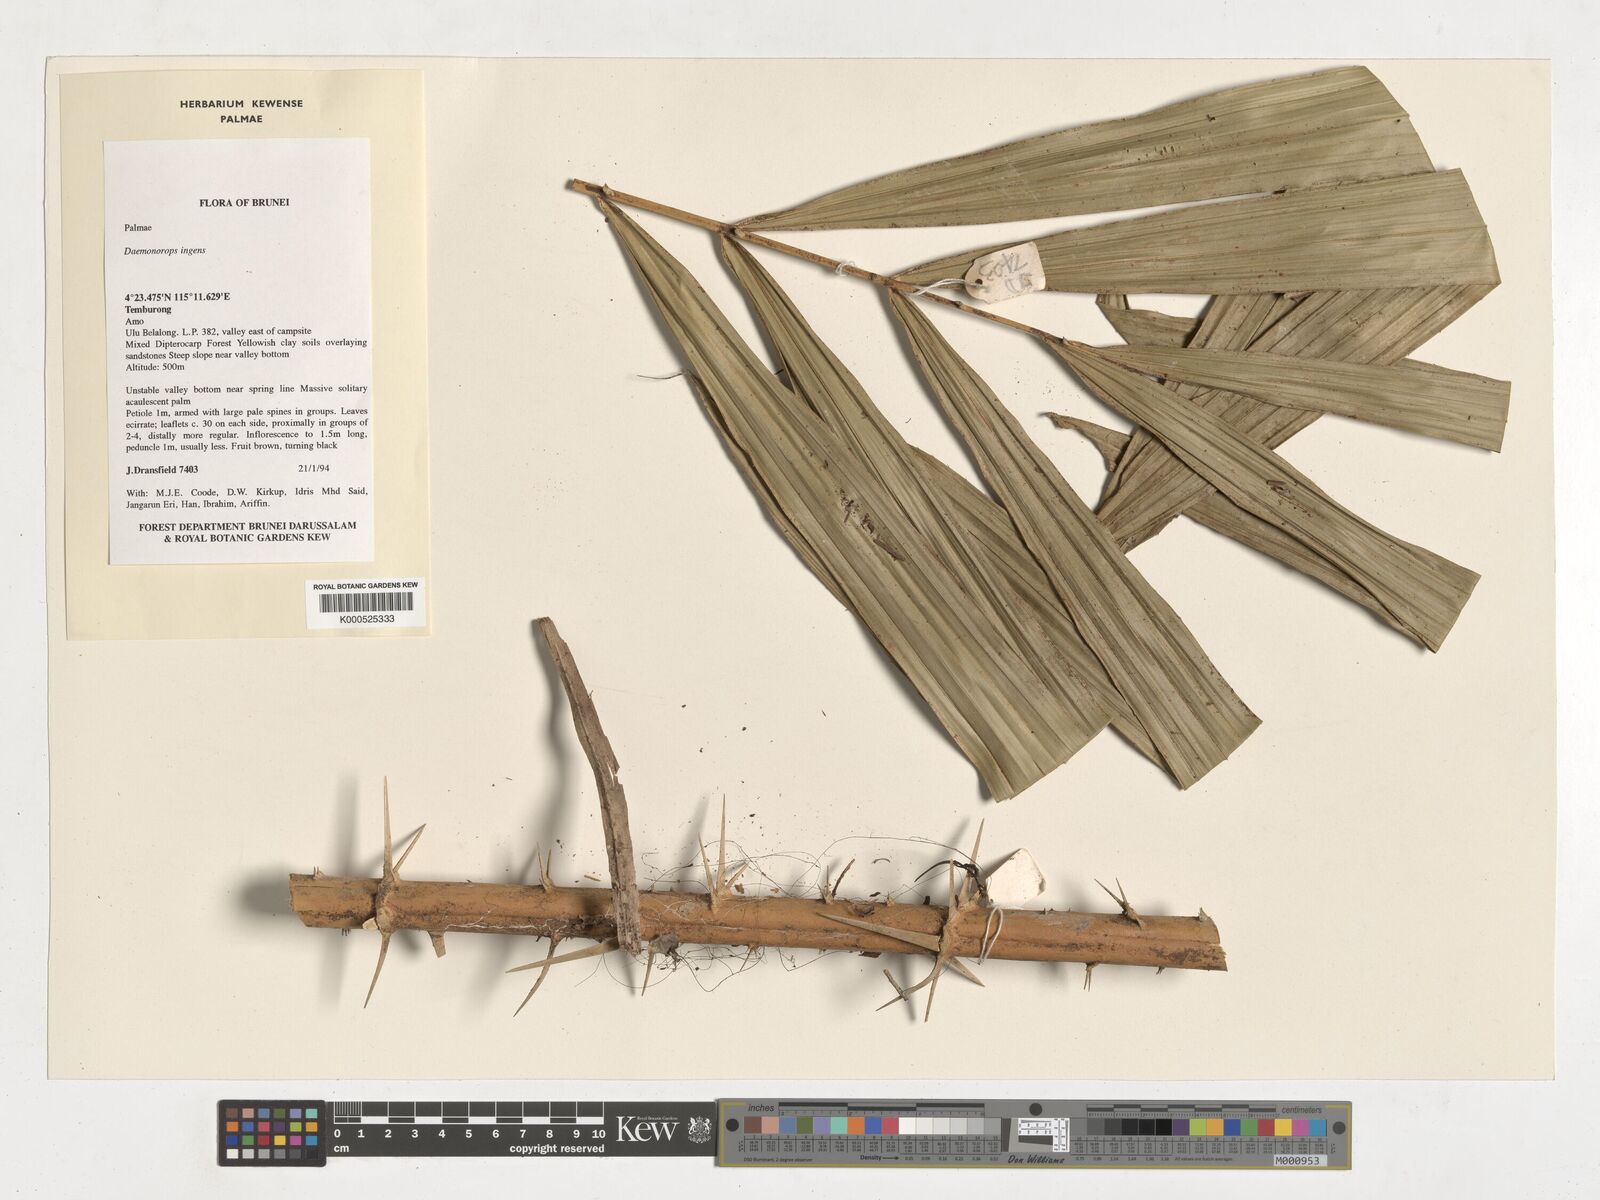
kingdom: Plantae
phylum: Tracheophyta
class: Liliopsida
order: Arecales
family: Arecaceae
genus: Calamus
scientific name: Calamus ingens
